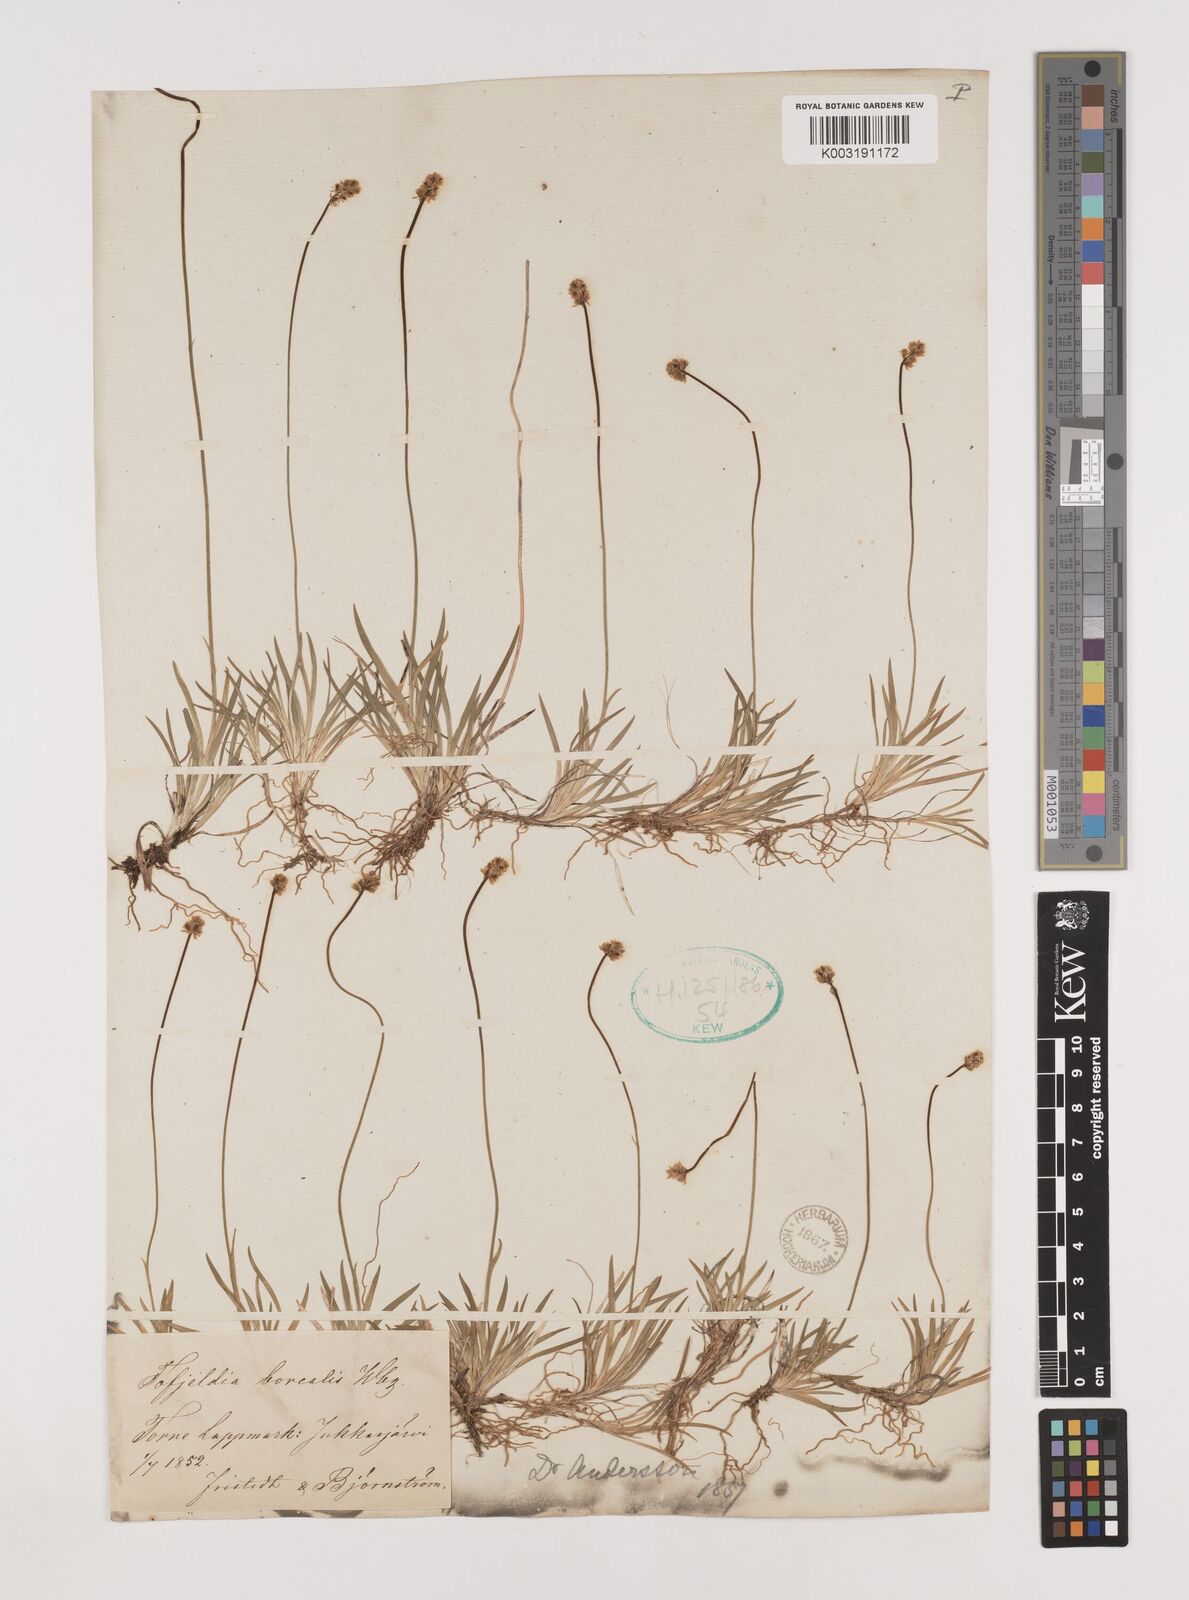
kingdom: Plantae
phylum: Tracheophyta
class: Liliopsida
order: Alismatales
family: Tofieldiaceae
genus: Tofieldia
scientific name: Tofieldia pusilla
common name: Scottish false asphodel
